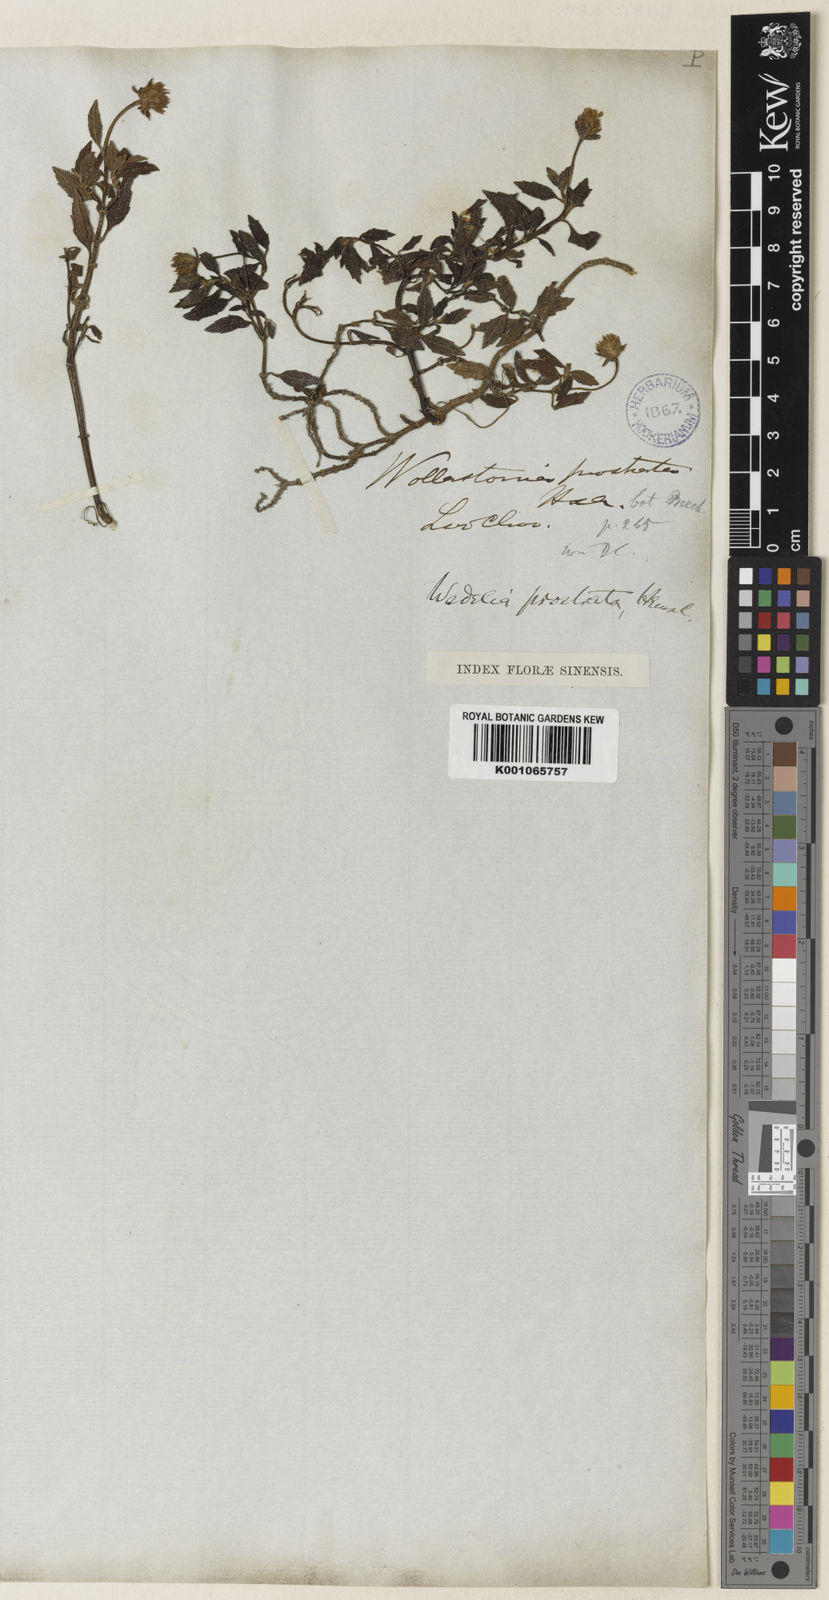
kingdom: Plantae
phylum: Tracheophyta
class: Magnoliopsida
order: Asterales
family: Asteraceae
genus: Sphagneticola
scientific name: Sphagneticola calendulacea
